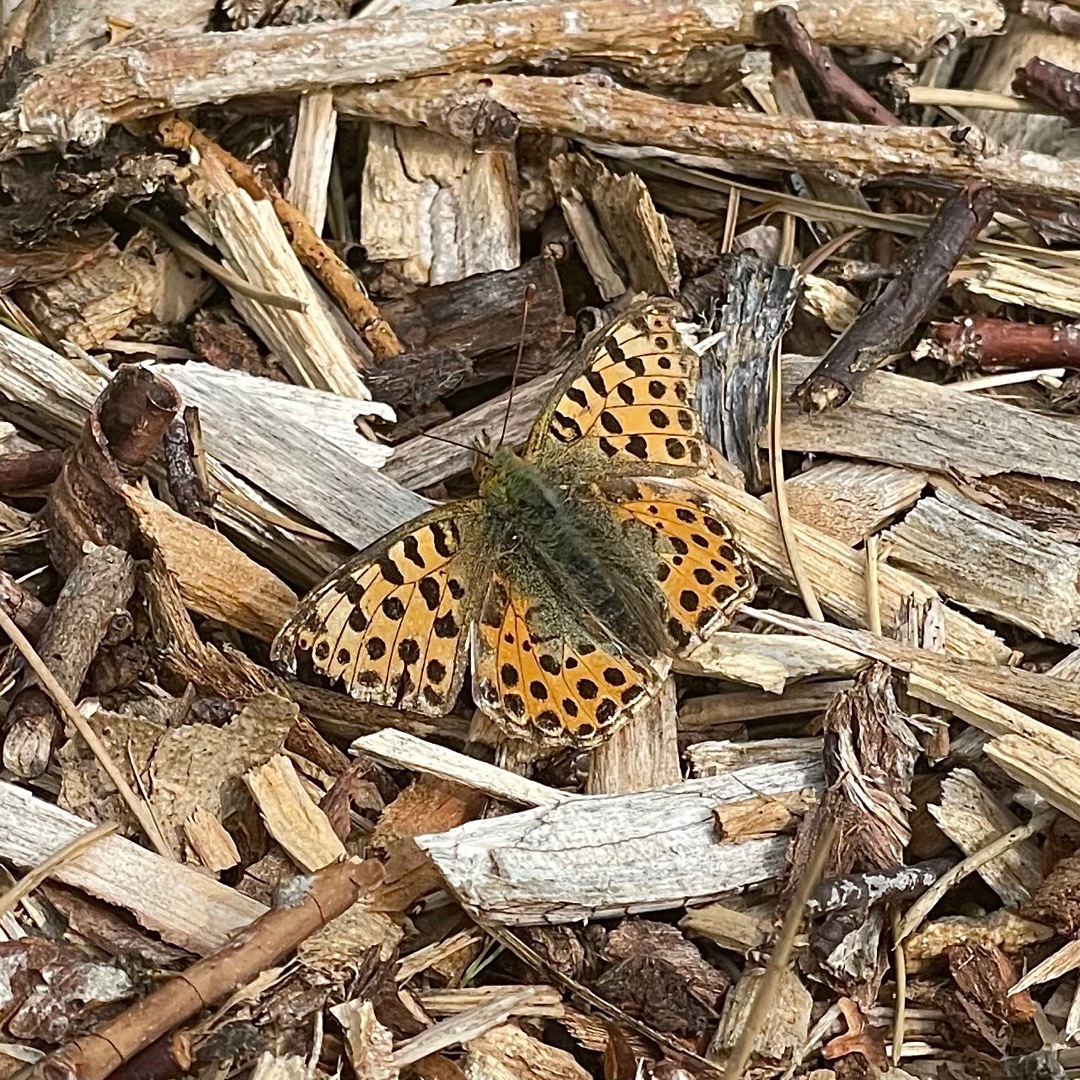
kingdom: Animalia
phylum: Arthropoda
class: Insecta
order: Lepidoptera
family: Nymphalidae
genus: Issoria
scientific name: Issoria lathonia
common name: Storplettet perlemorsommerfugl
